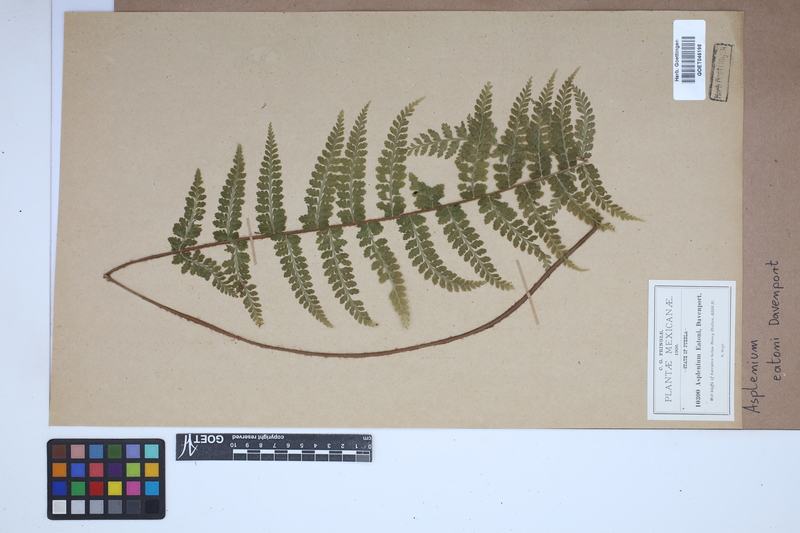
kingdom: Plantae
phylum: Tracheophyta
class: Polypodiopsida
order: Polypodiales
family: Aspleniaceae
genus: Asplenium
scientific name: Asplenium eatonii
